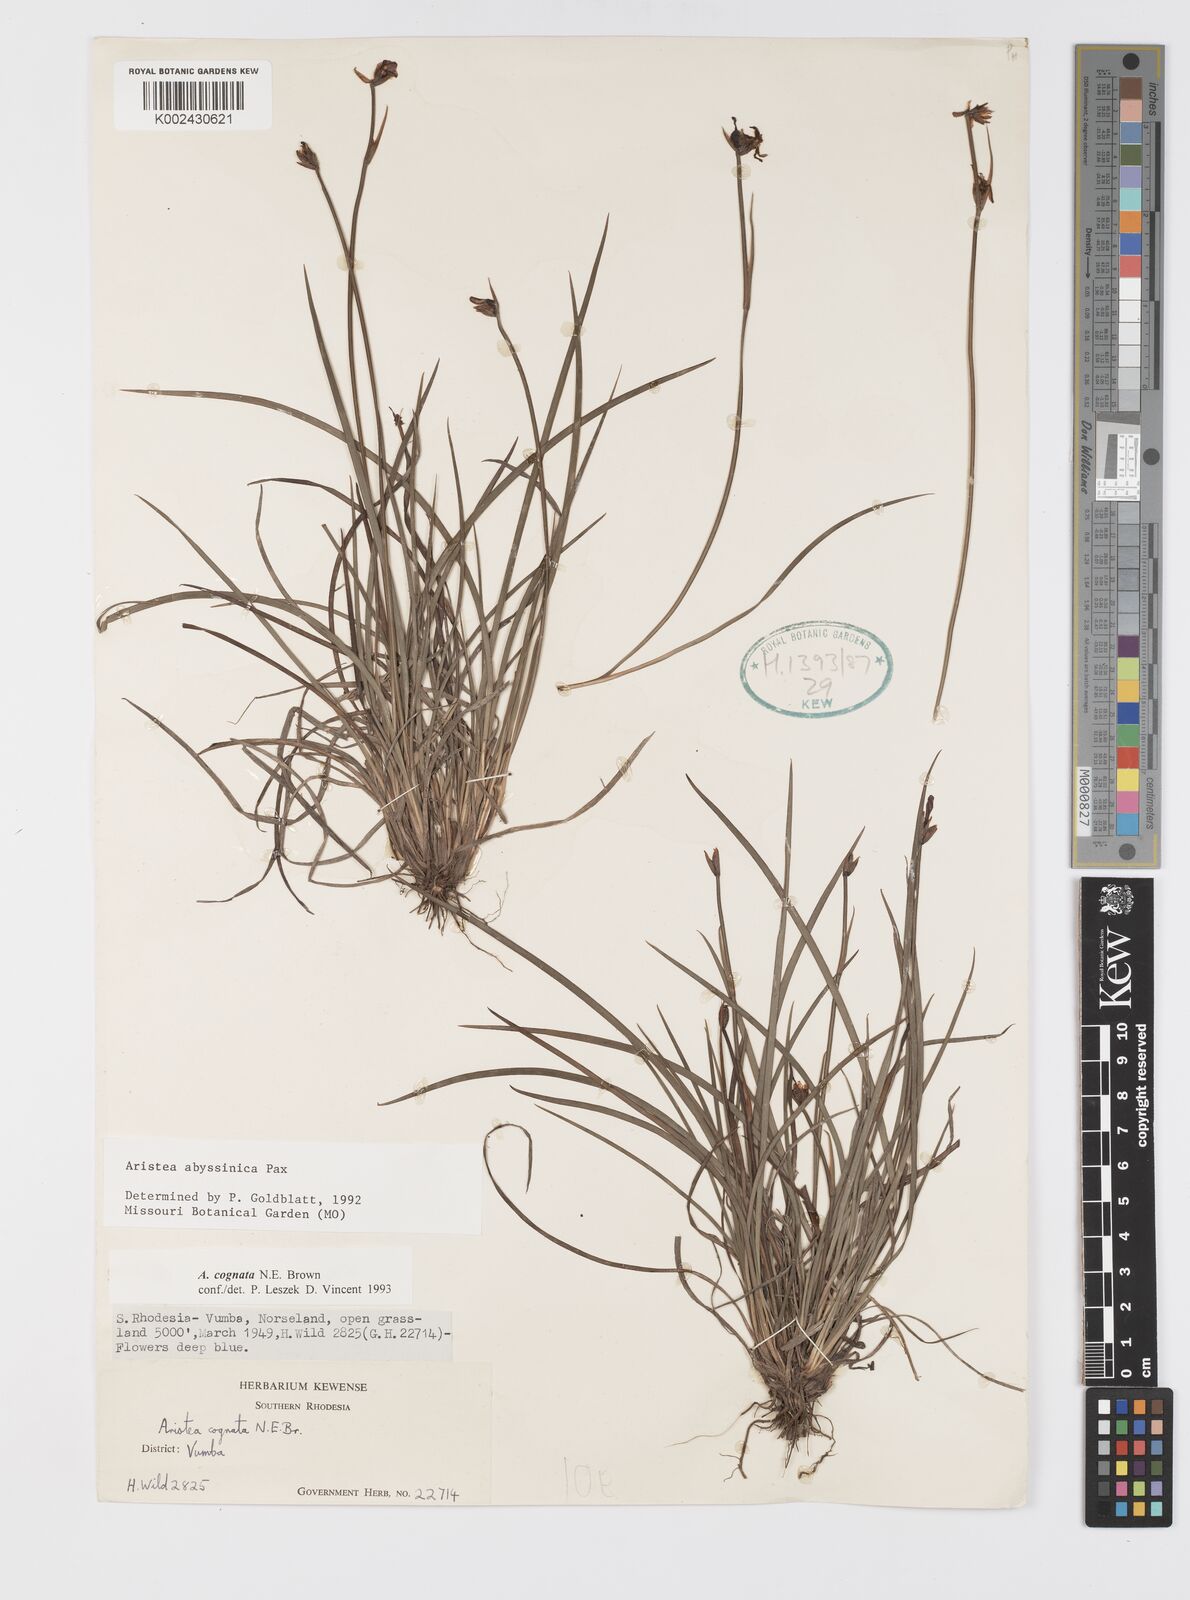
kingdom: Plantae
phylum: Tracheophyta
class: Liliopsida
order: Asparagales
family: Iridaceae
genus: Aristea
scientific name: Aristea abyssinica
